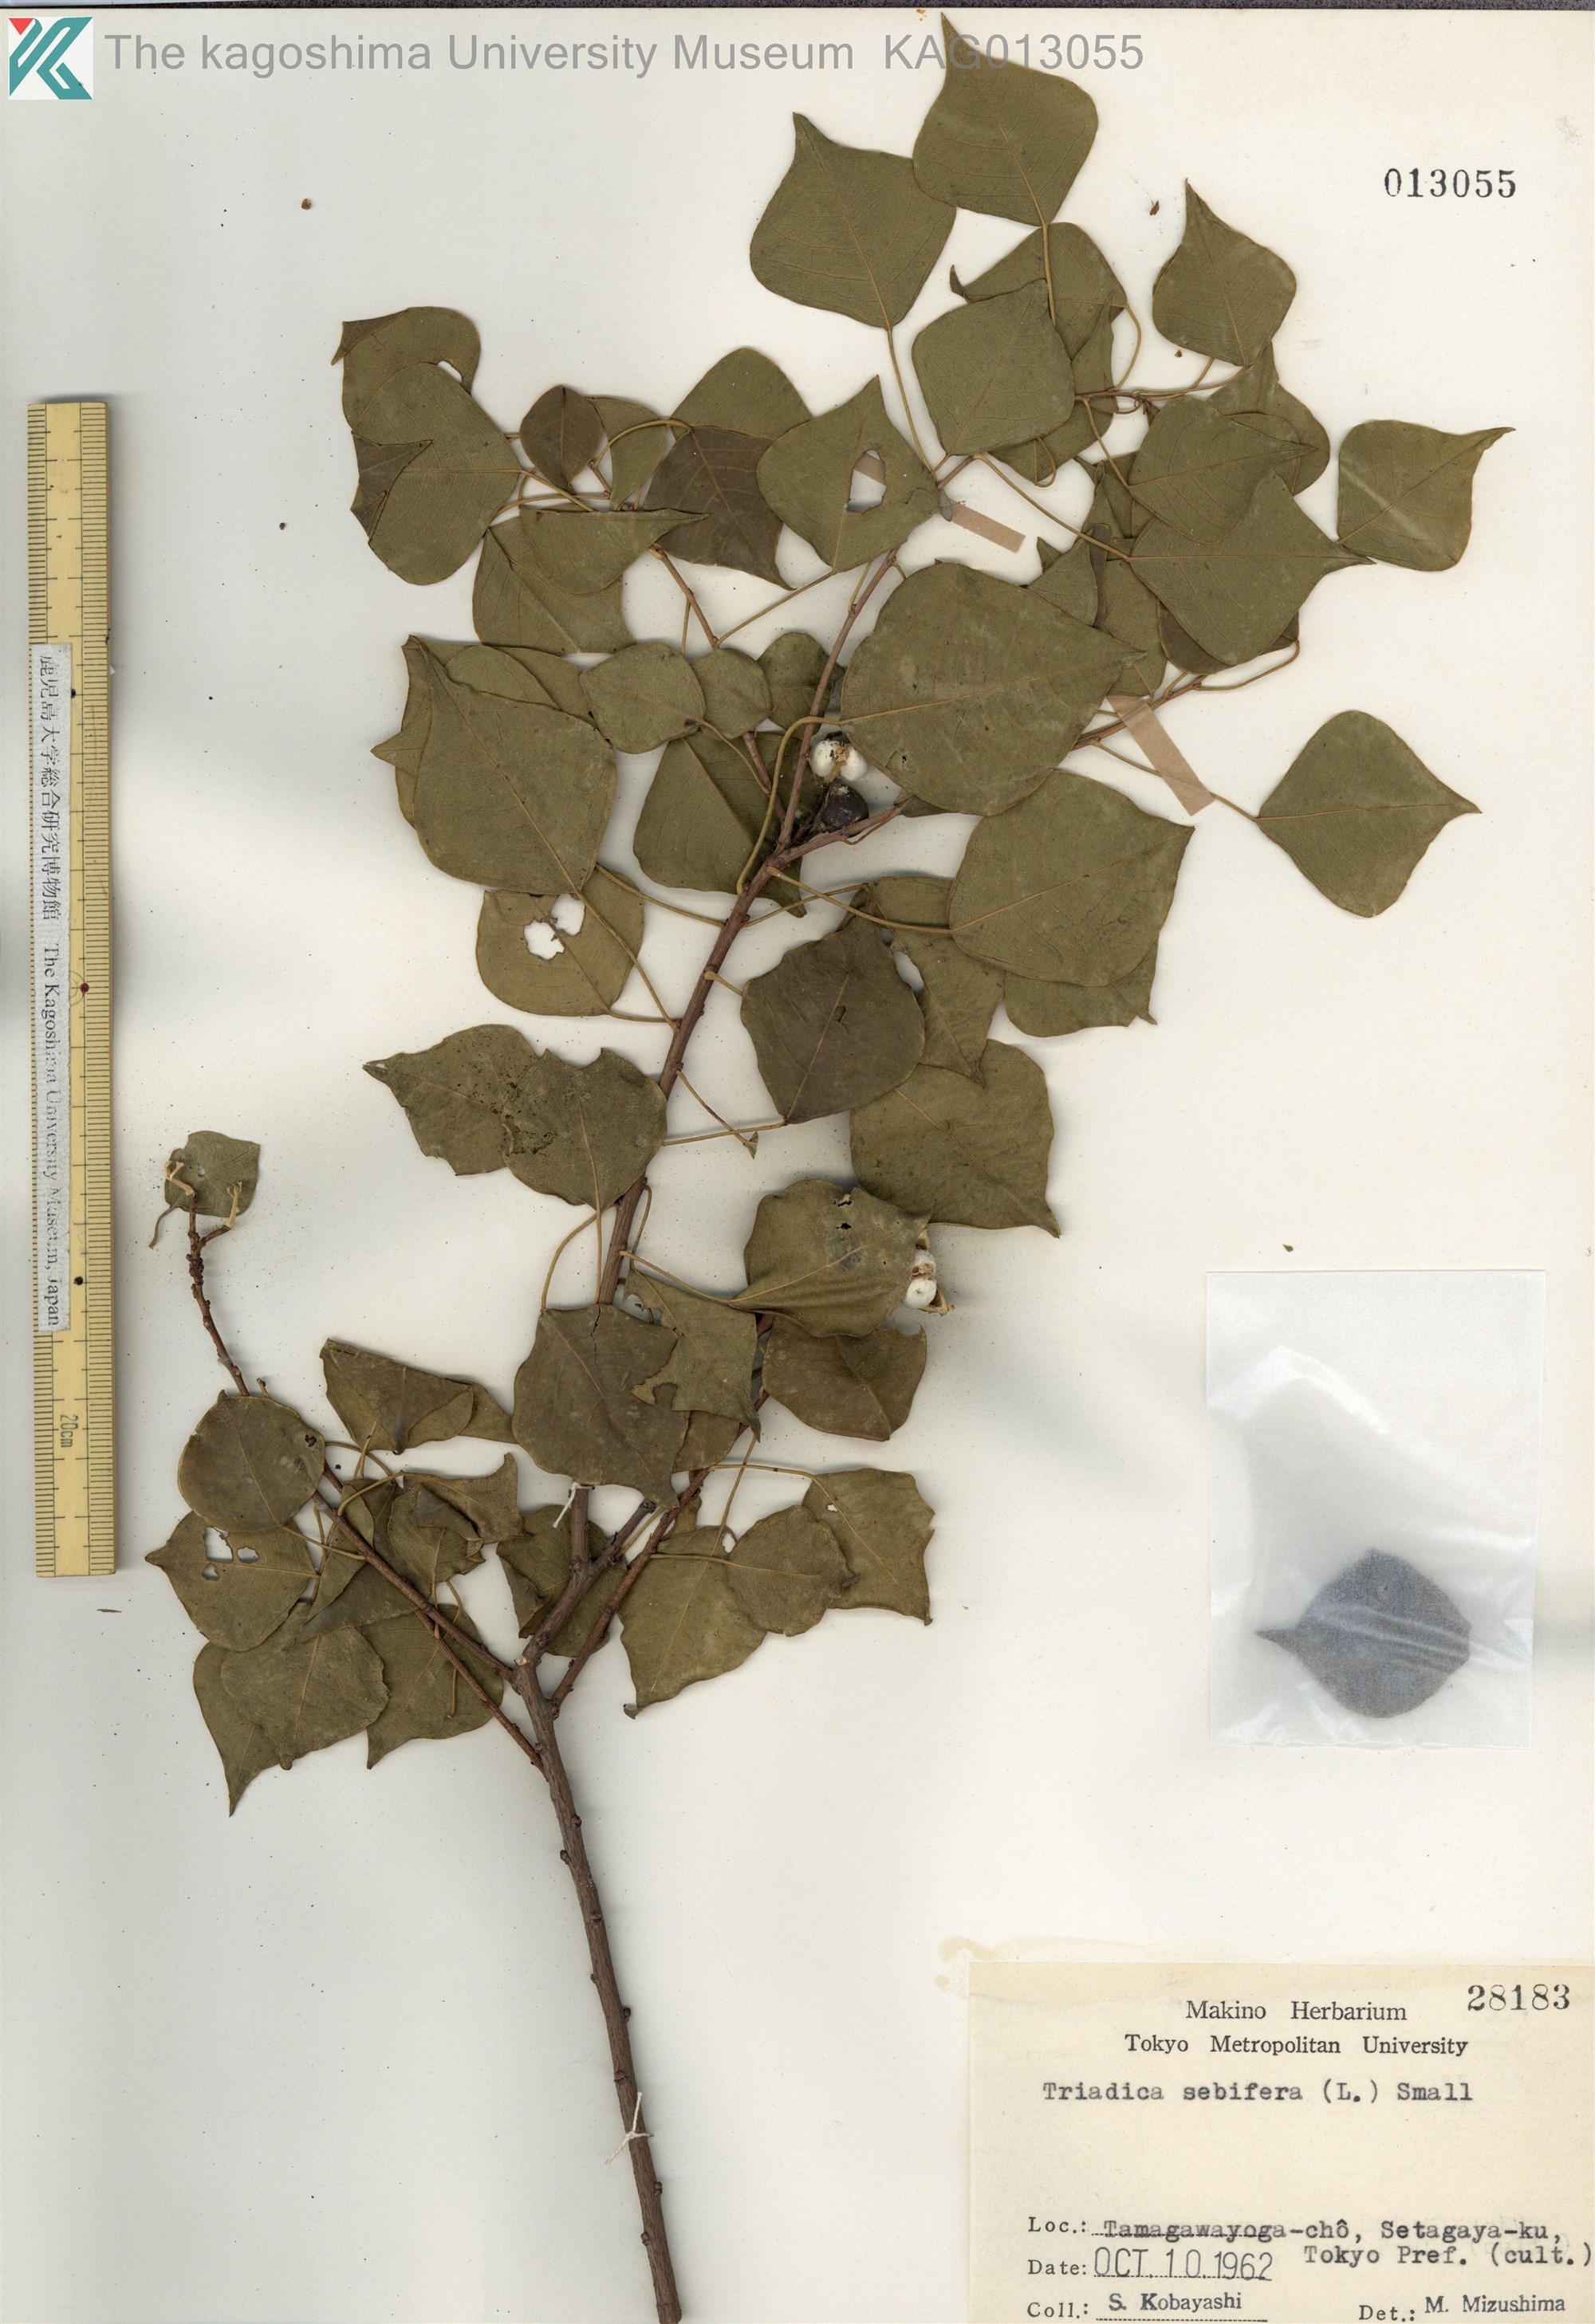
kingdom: Plantae
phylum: Tracheophyta
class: Magnoliopsida
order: Malpighiales
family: Euphorbiaceae
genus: Triadica
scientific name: Triadica sebifera
